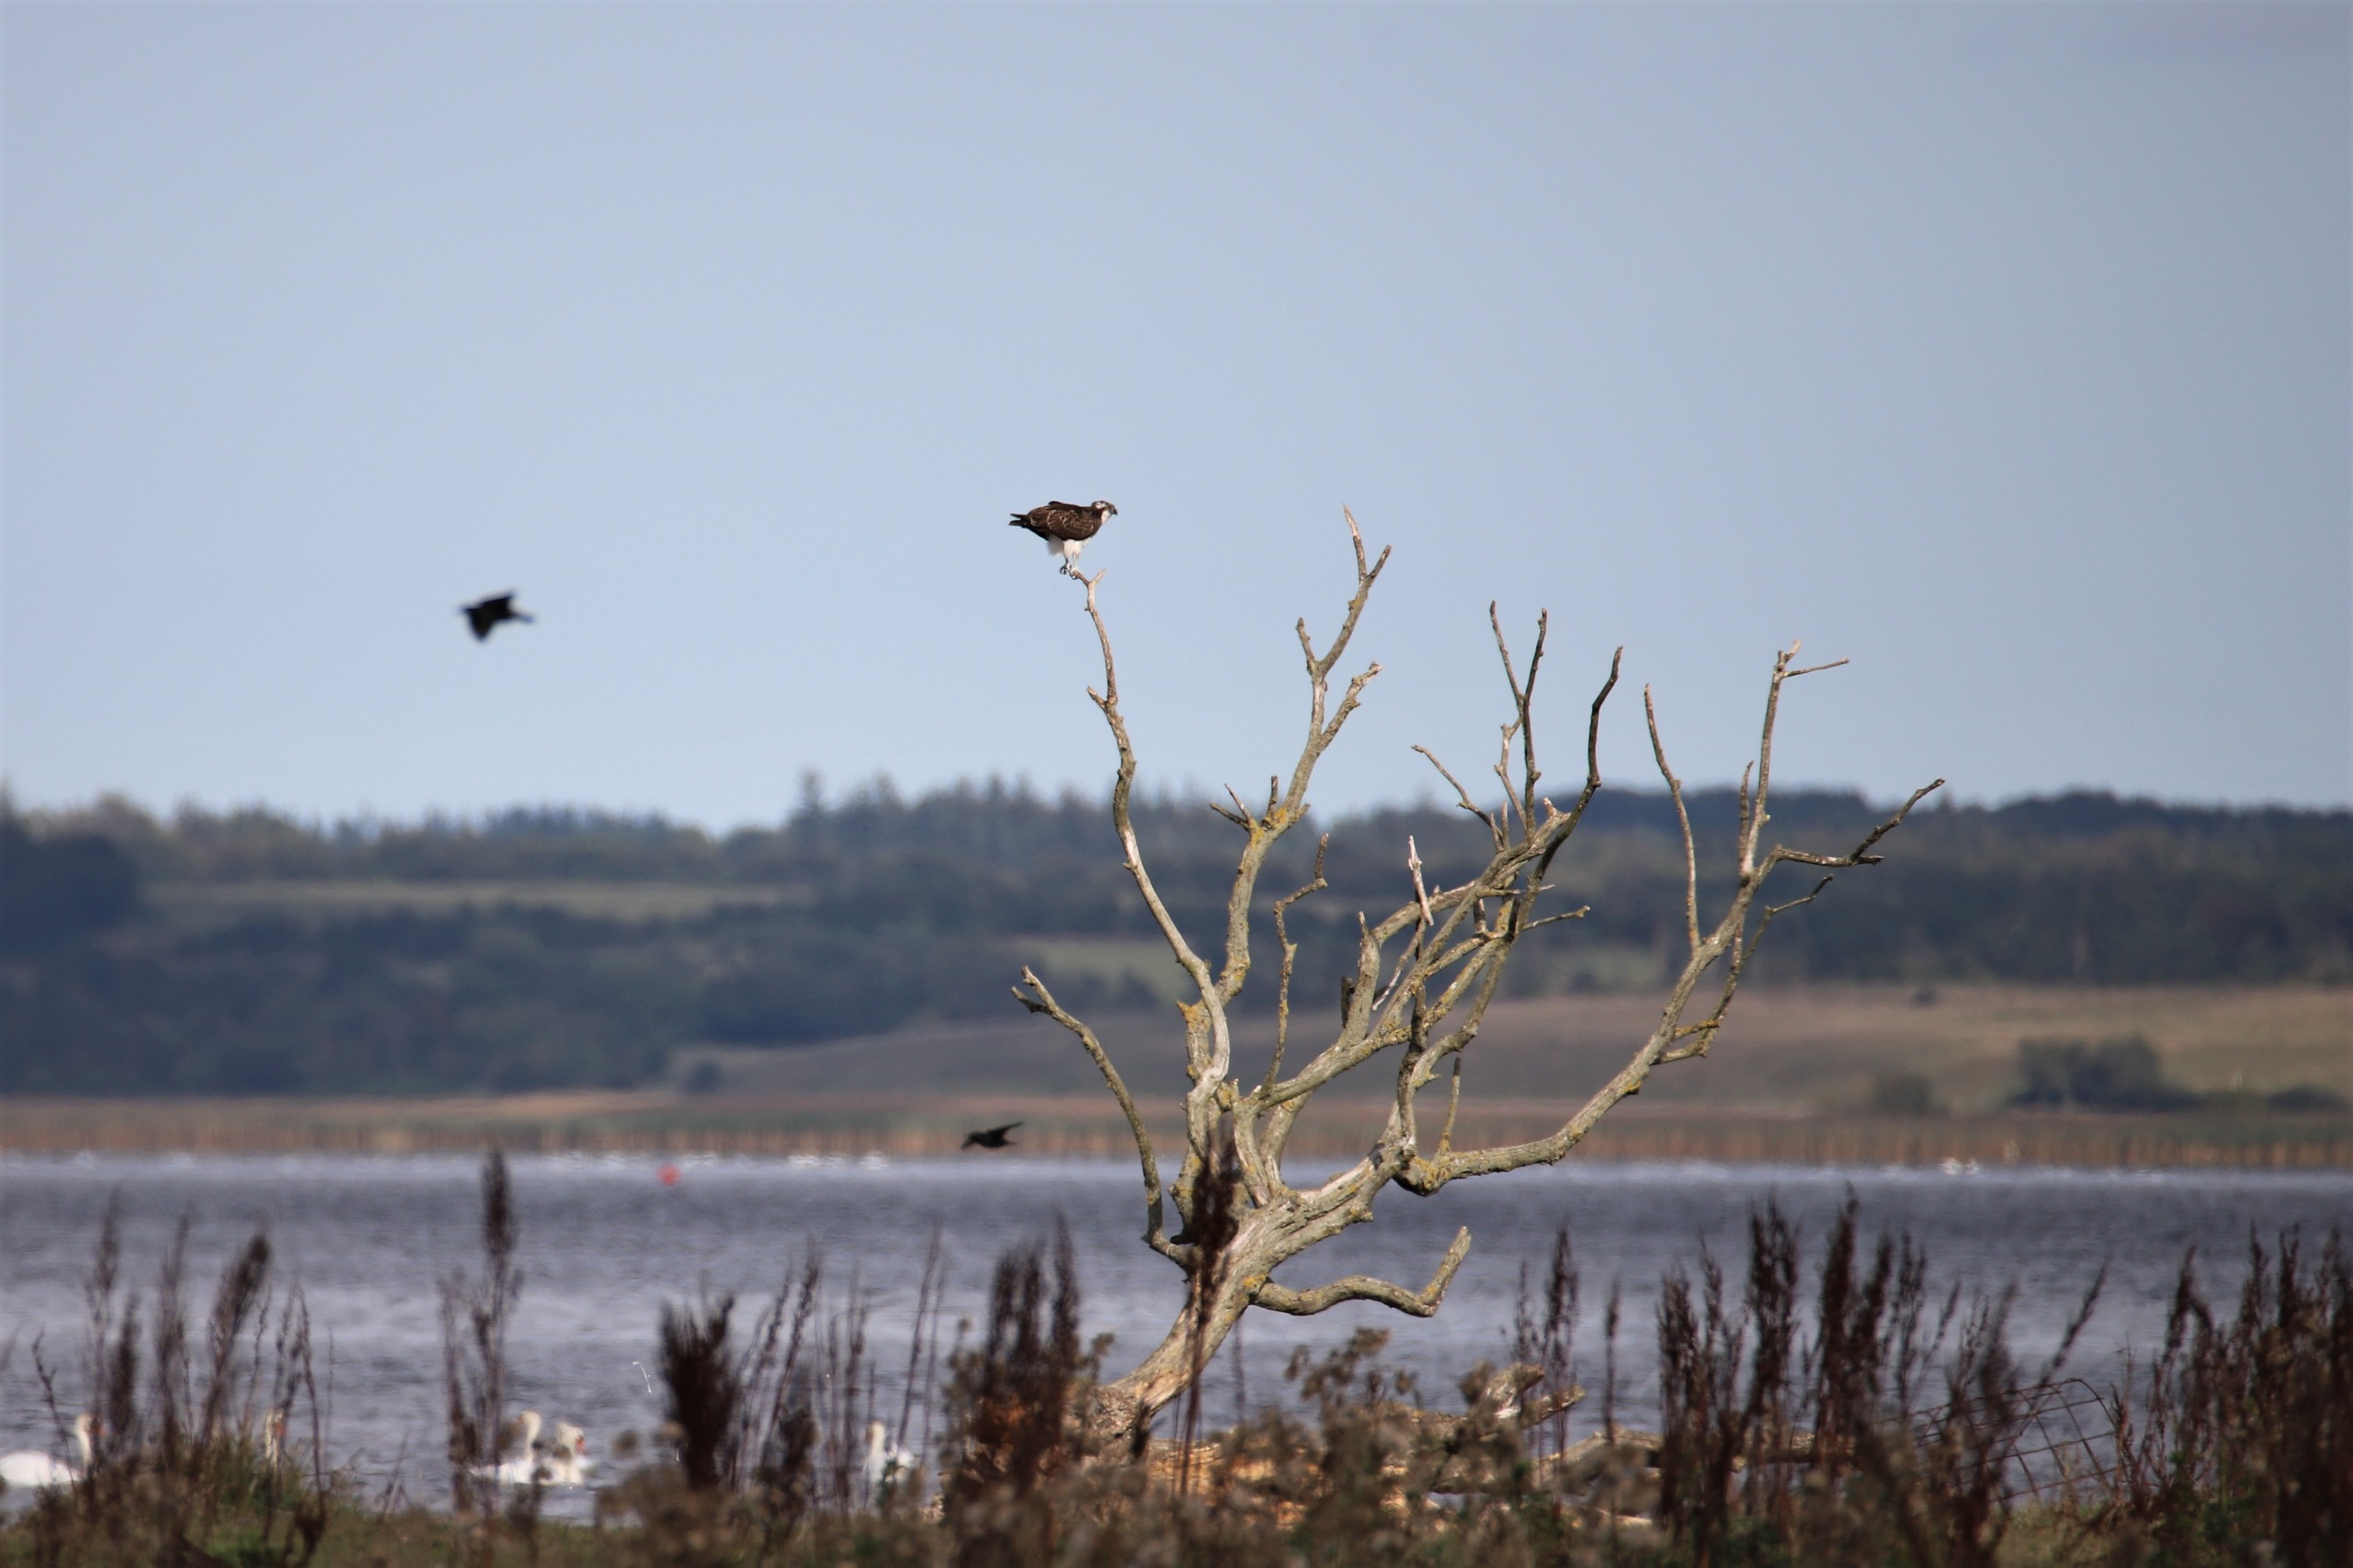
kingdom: Animalia
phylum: Chordata
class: Aves
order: Accipitriformes
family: Pandionidae
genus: Pandion
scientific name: Pandion haliaetus
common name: Fiskeørn
